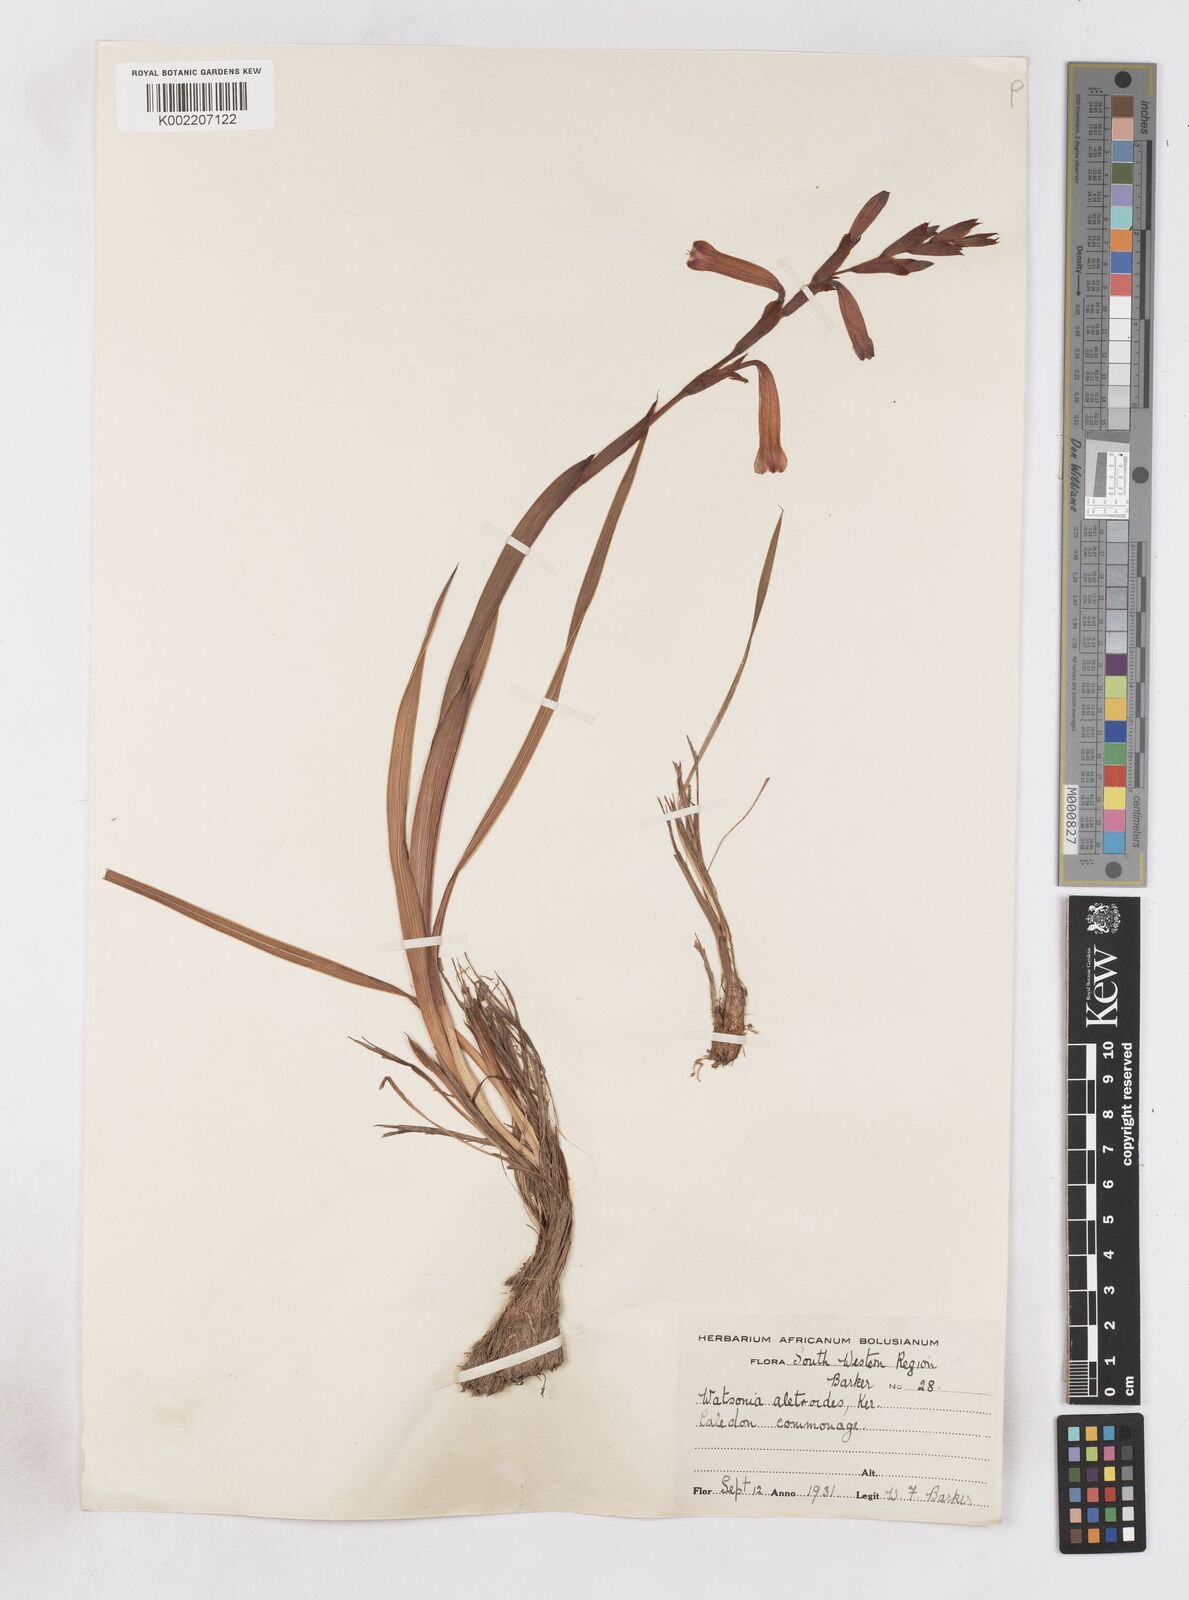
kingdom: Plantae
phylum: Tracheophyta
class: Liliopsida
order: Asparagales
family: Iridaceae
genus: Watsonia
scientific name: Watsonia aletroides
